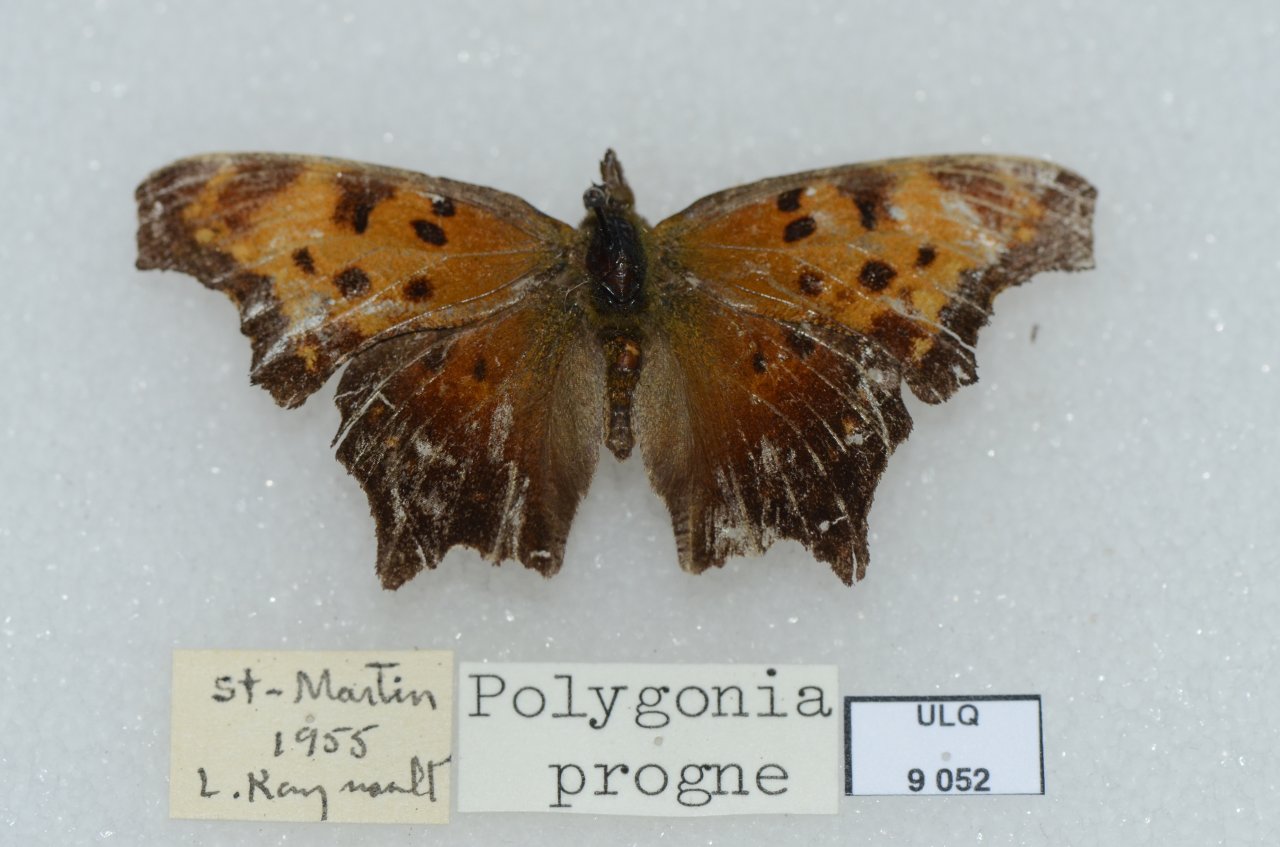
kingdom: Animalia
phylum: Arthropoda
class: Insecta
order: Lepidoptera
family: Nymphalidae
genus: Polygonia
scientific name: Polygonia progne
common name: Gray Comma
